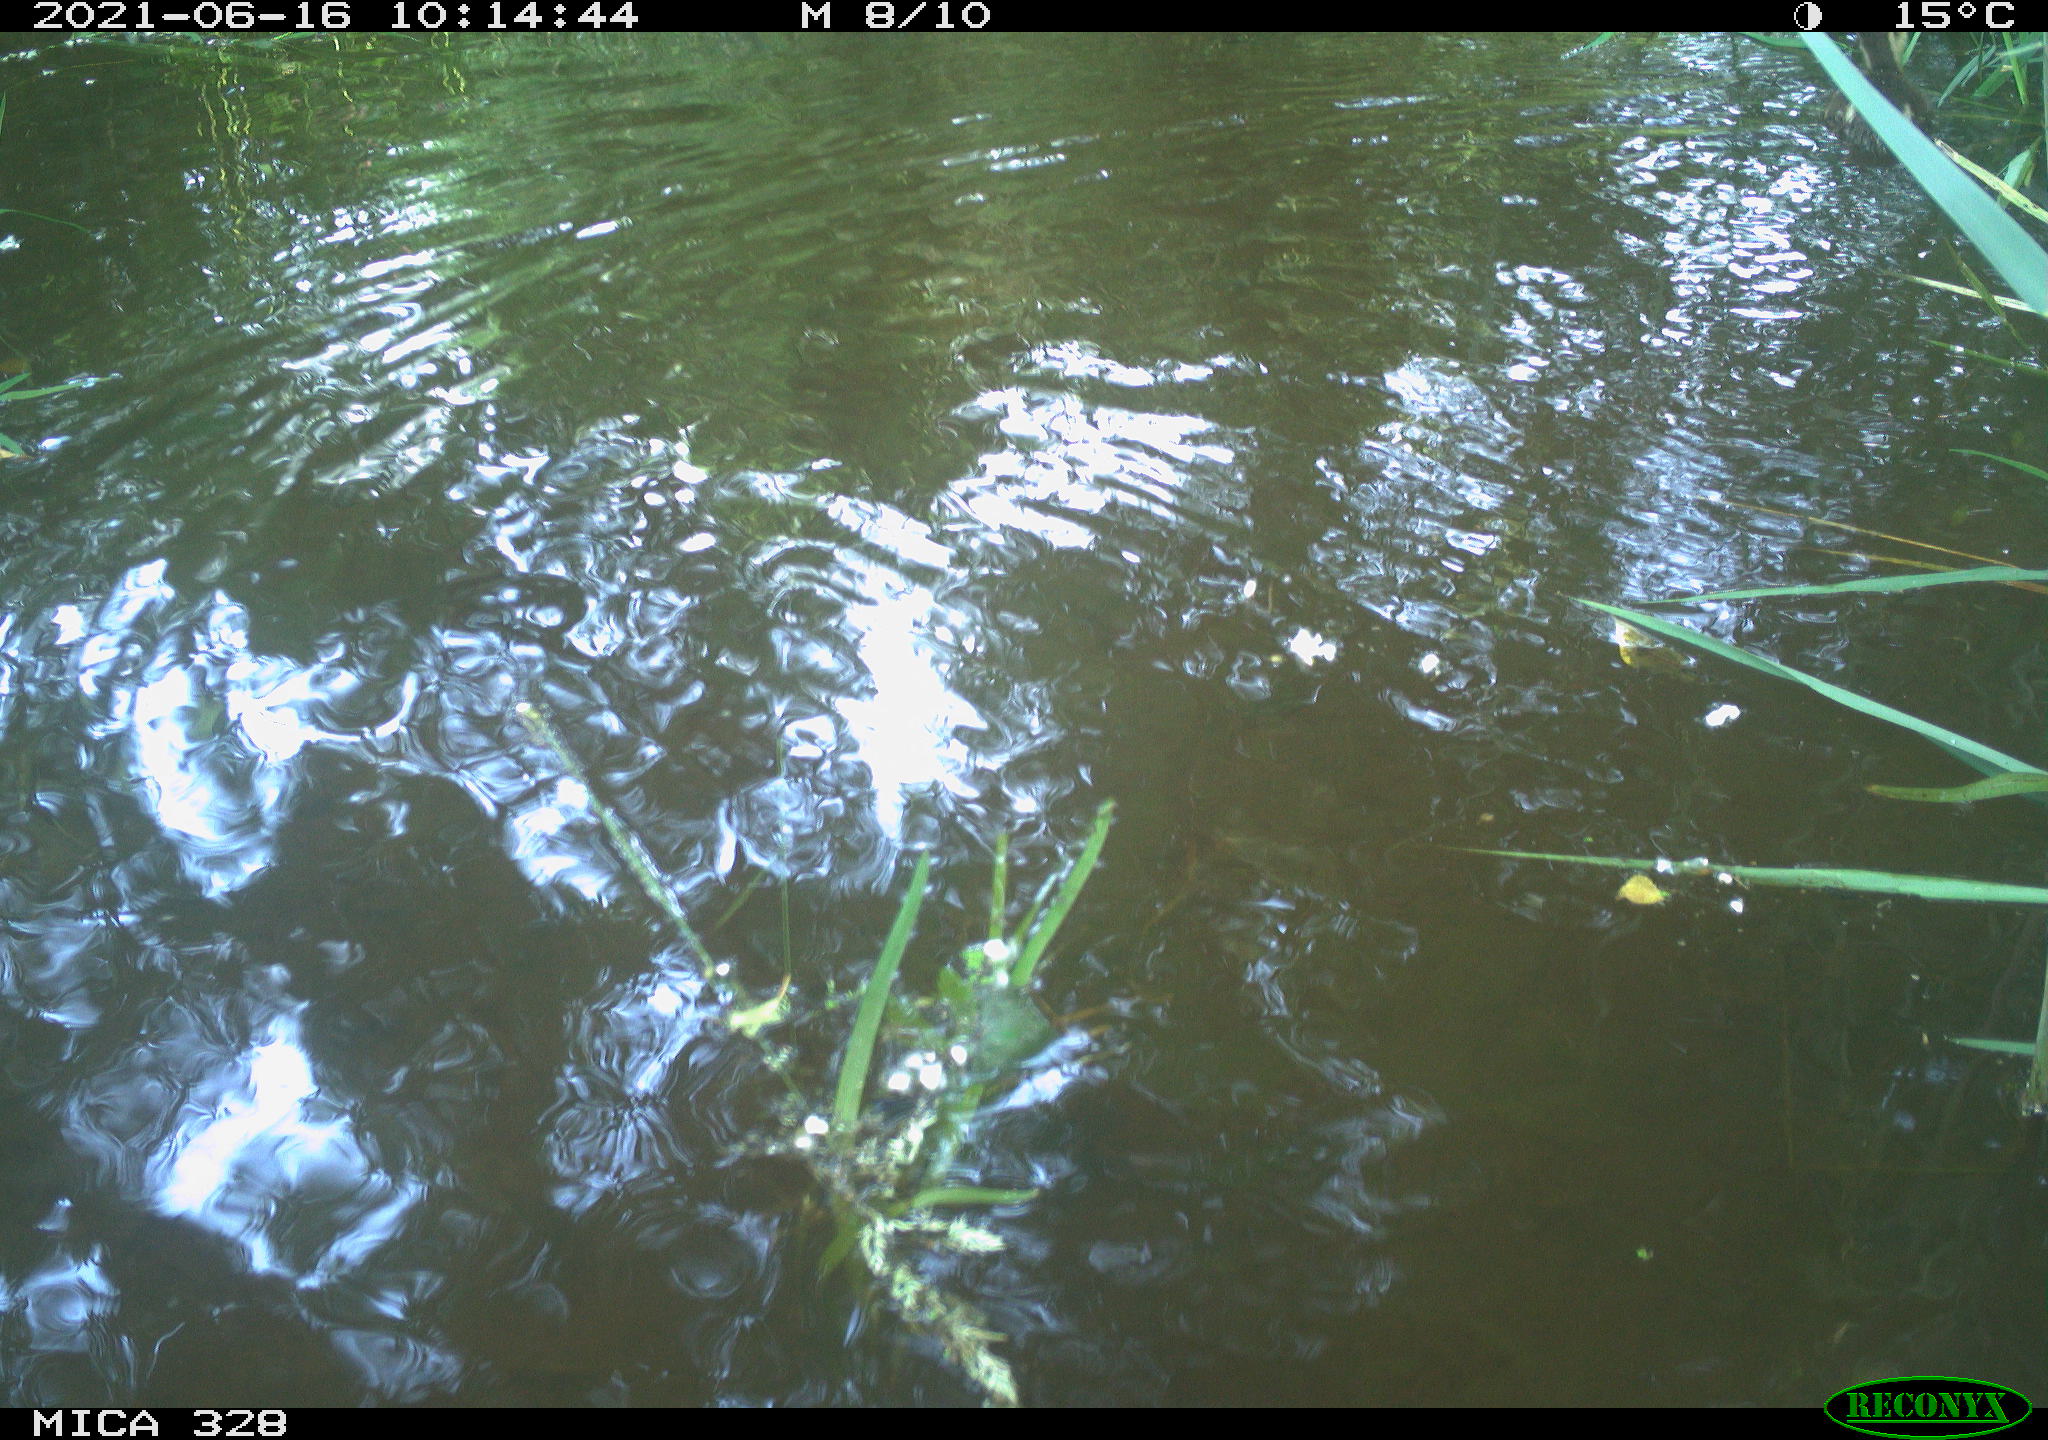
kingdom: Animalia
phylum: Chordata
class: Aves
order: Anseriformes
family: Anatidae
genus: Aix
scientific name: Aix galericulata
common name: Mandarin duck
